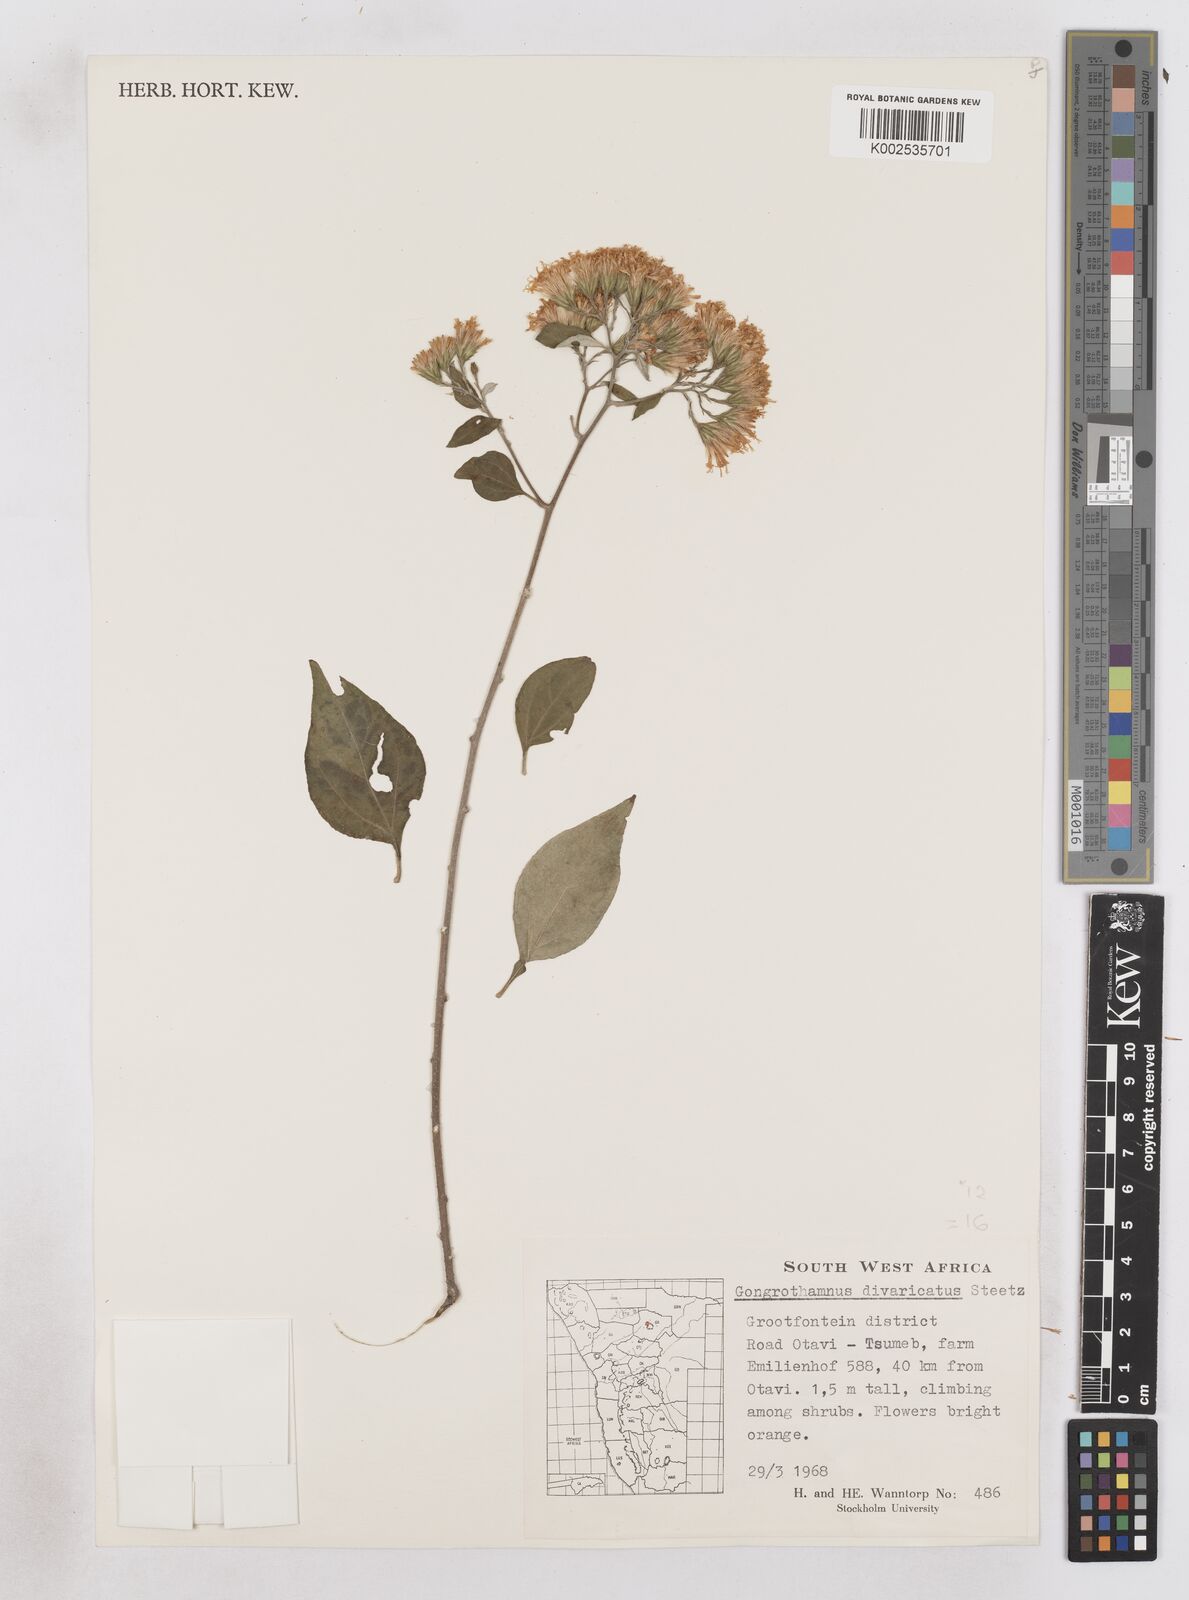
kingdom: Plantae
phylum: Tracheophyta
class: Magnoliopsida
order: Asterales
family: Asteraceae
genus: Distephanus
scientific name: Distephanus
